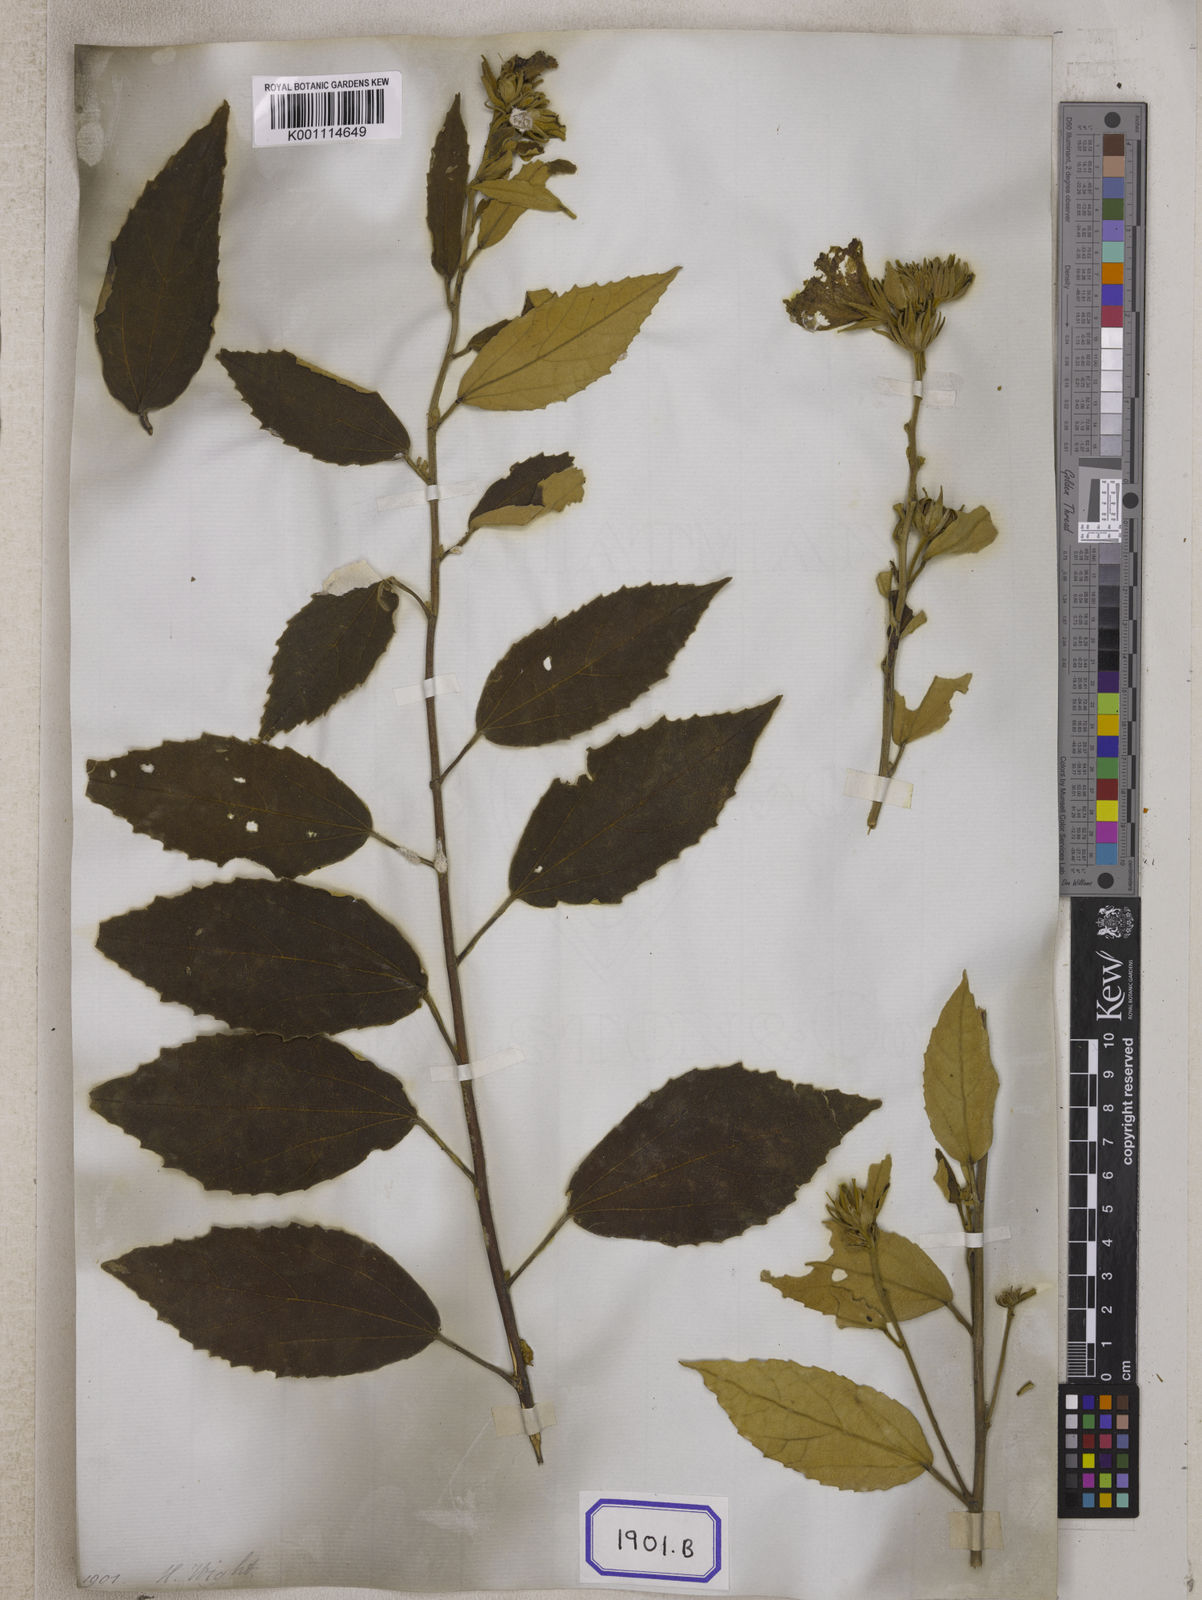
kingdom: Plantae
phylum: Tracheophyta
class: Magnoliopsida
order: Malvales
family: Malvaceae
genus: Decaschistia
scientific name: Decaschistia crotonifolia
